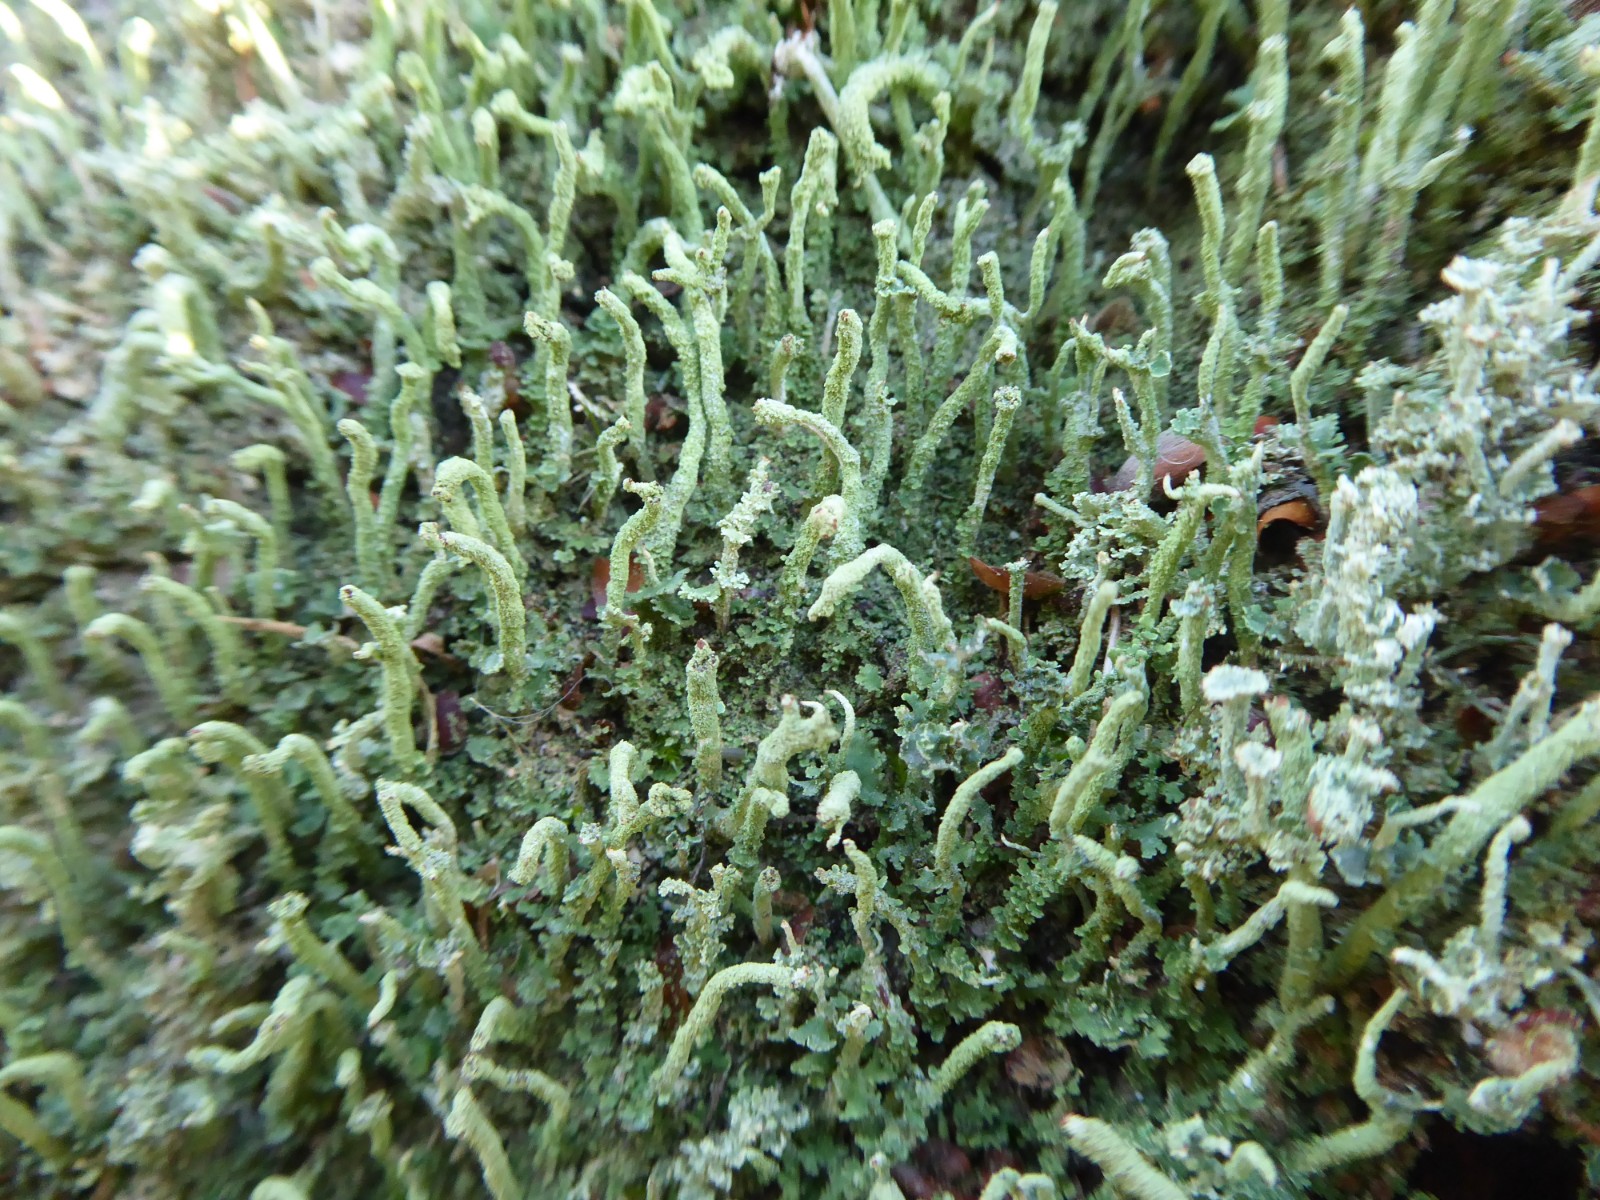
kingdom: Fungi
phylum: Ascomycota
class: Lecanoromycetes
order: Lecanorales
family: Cladoniaceae
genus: Cladonia
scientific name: Cladonia ochrochlora
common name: stød-bægerlav
